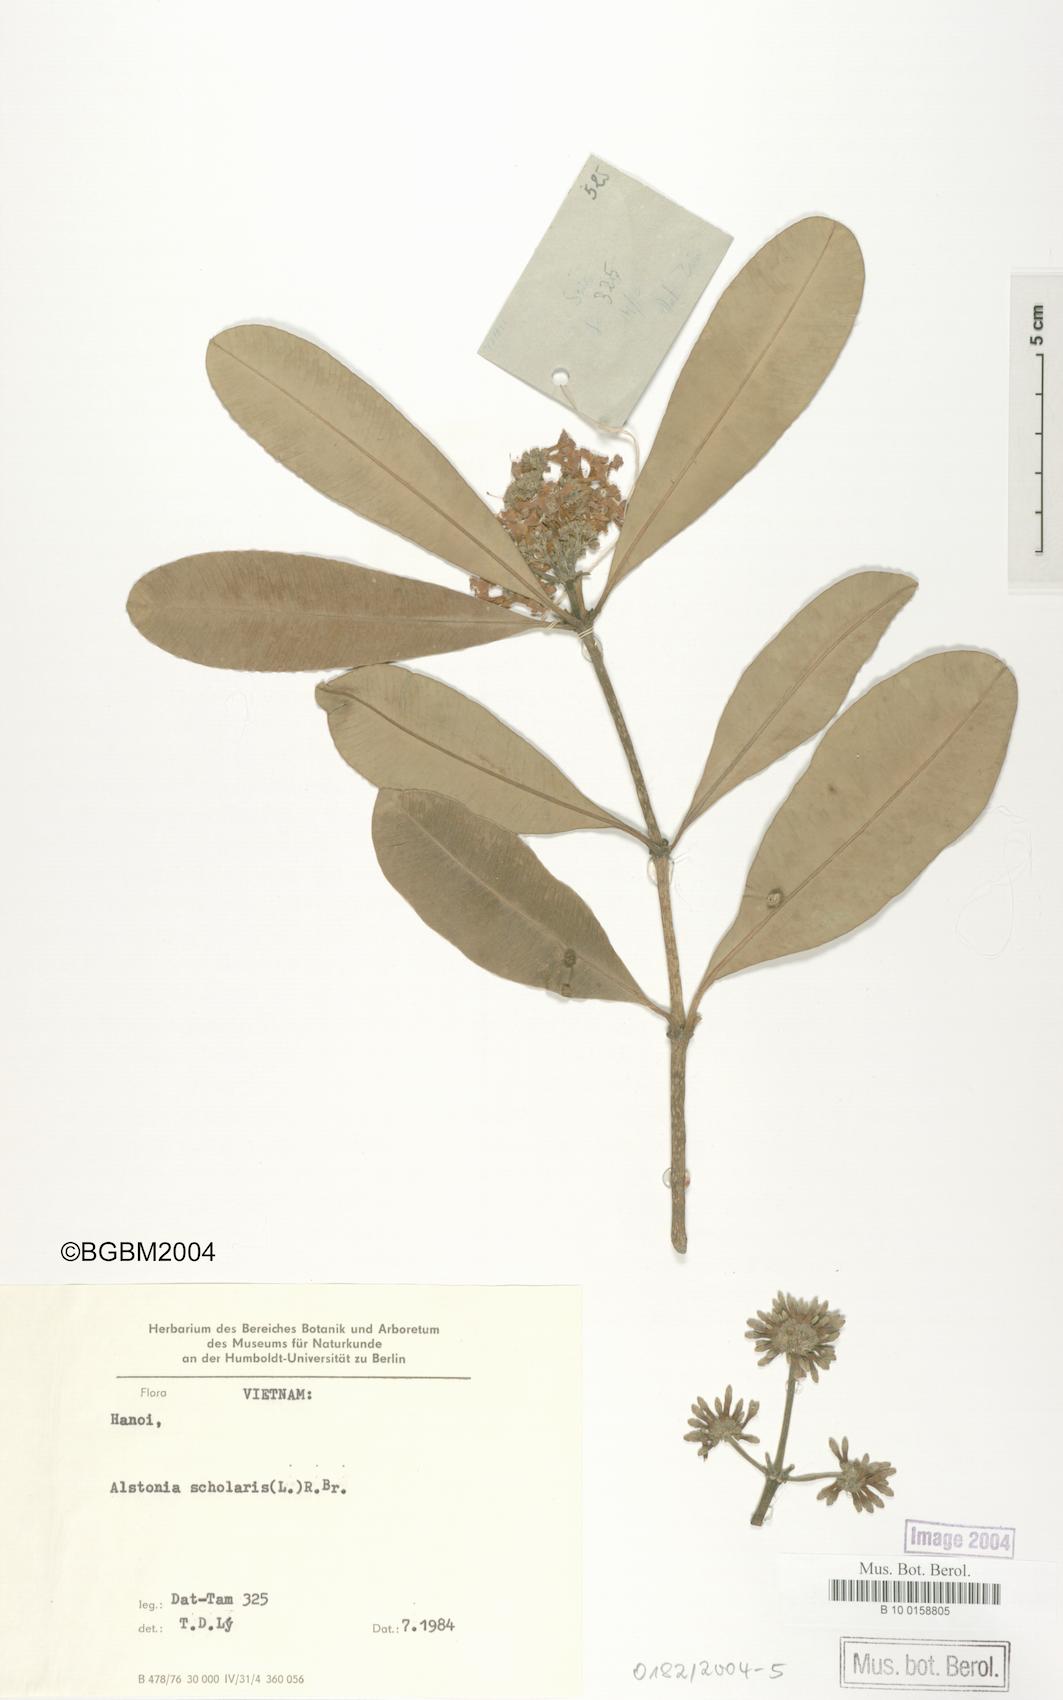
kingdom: Plantae
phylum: Tracheophyta
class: Magnoliopsida
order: Gentianales
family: Apocynaceae
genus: Alstonia
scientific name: Alstonia scholaris
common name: White cheesewood
